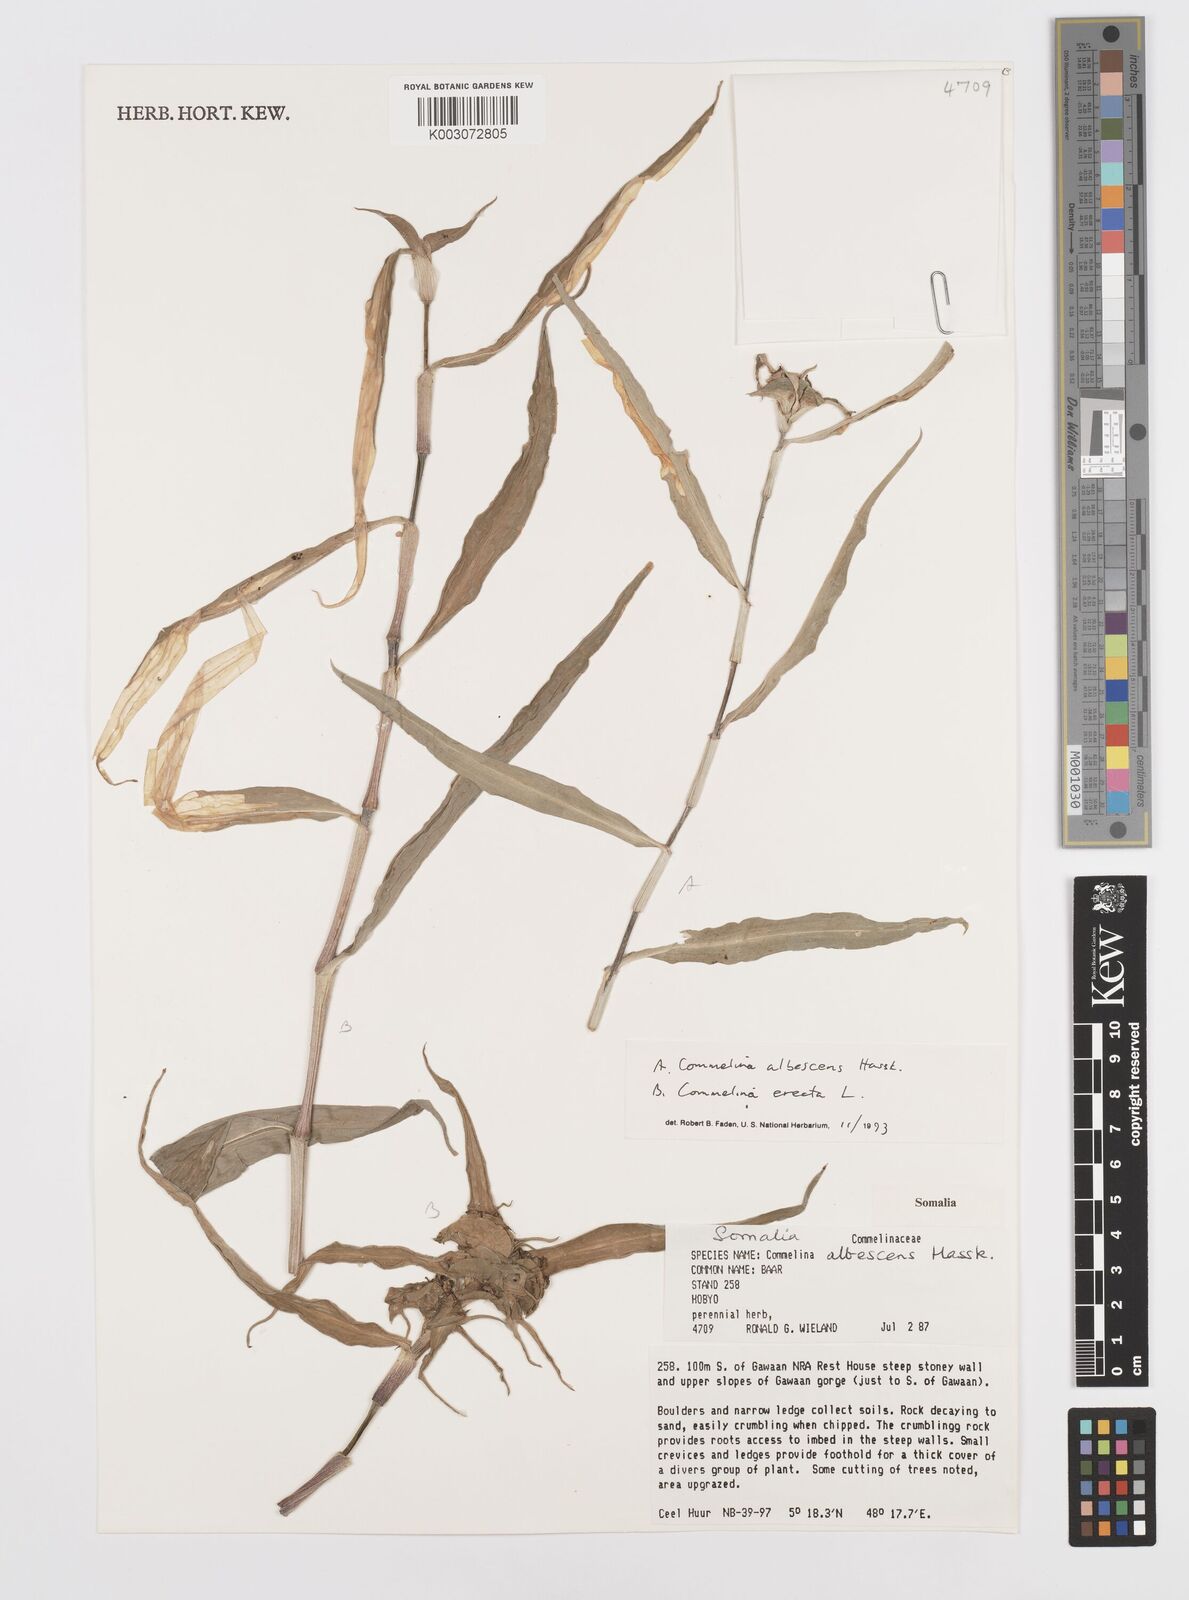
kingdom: Plantae
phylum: Tracheophyta
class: Liliopsida
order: Commelinales
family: Commelinaceae
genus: Commelina
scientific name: Commelina albescens
